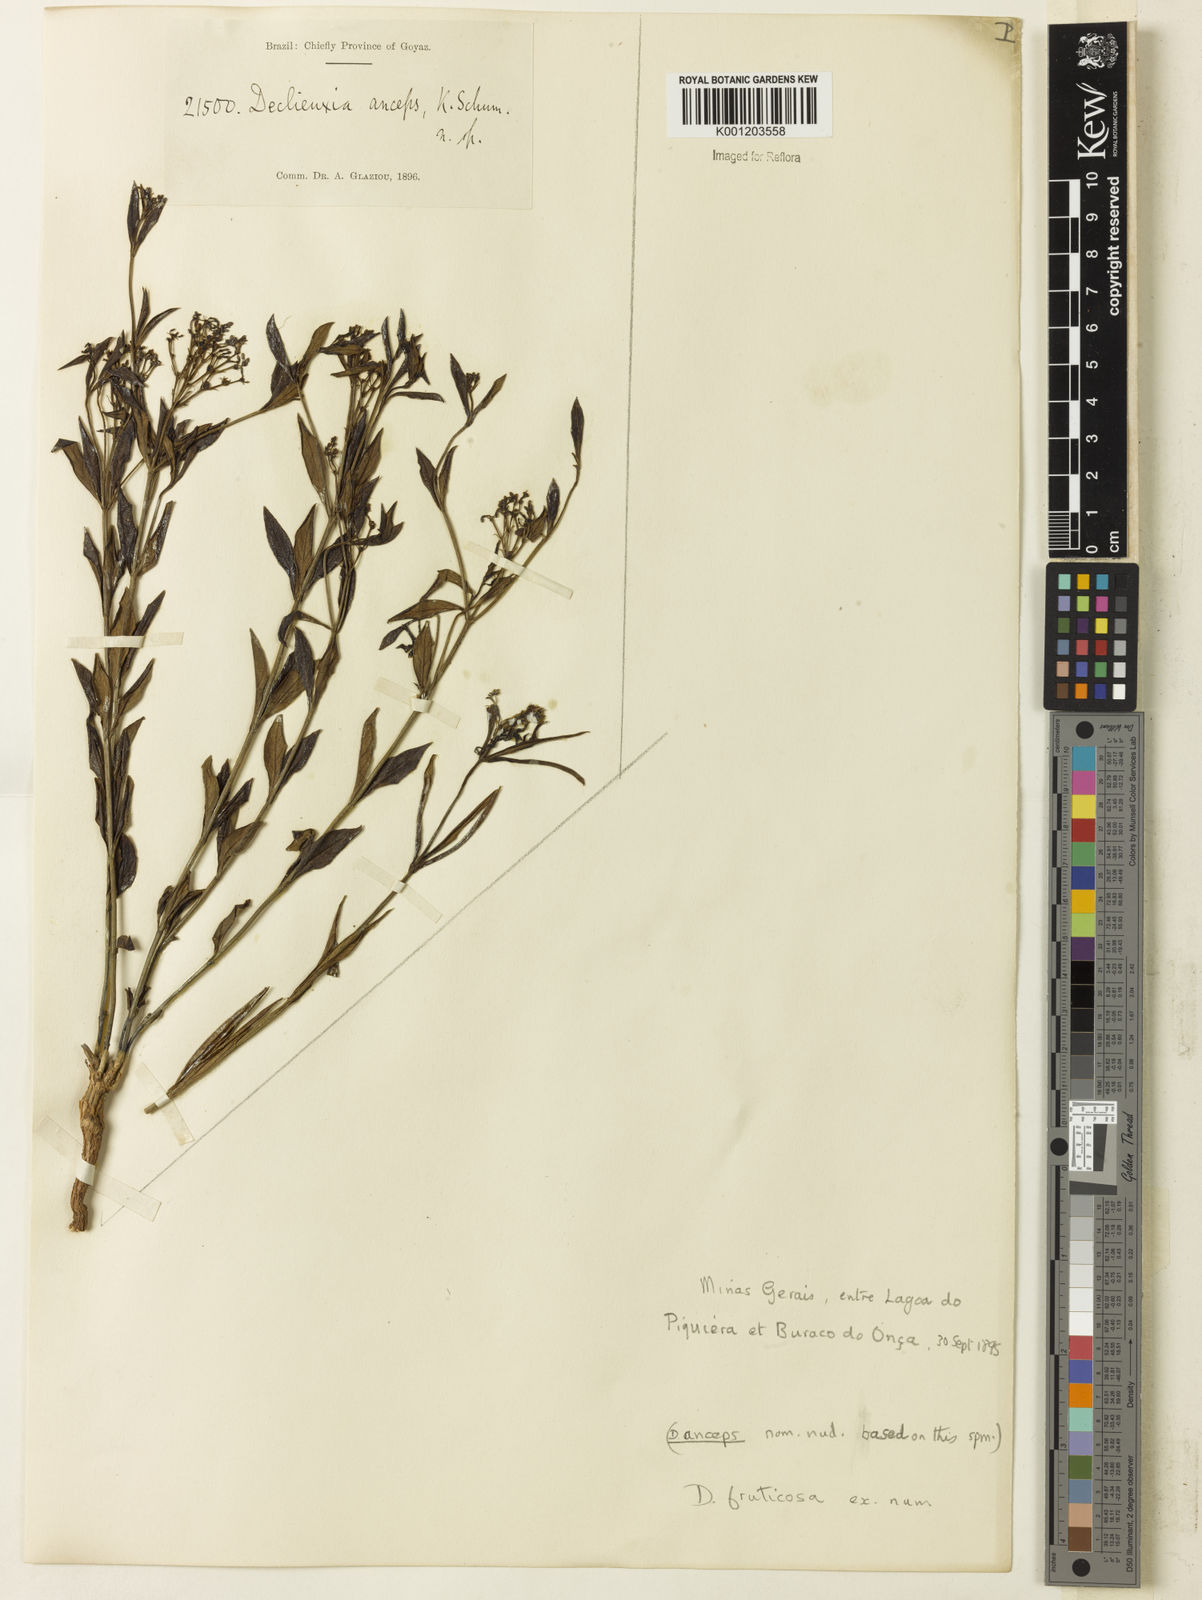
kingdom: Plantae
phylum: Tracheophyta
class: Magnoliopsida
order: Gentianales
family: Rubiaceae
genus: Declieuxia
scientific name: Declieuxia fruticosa
